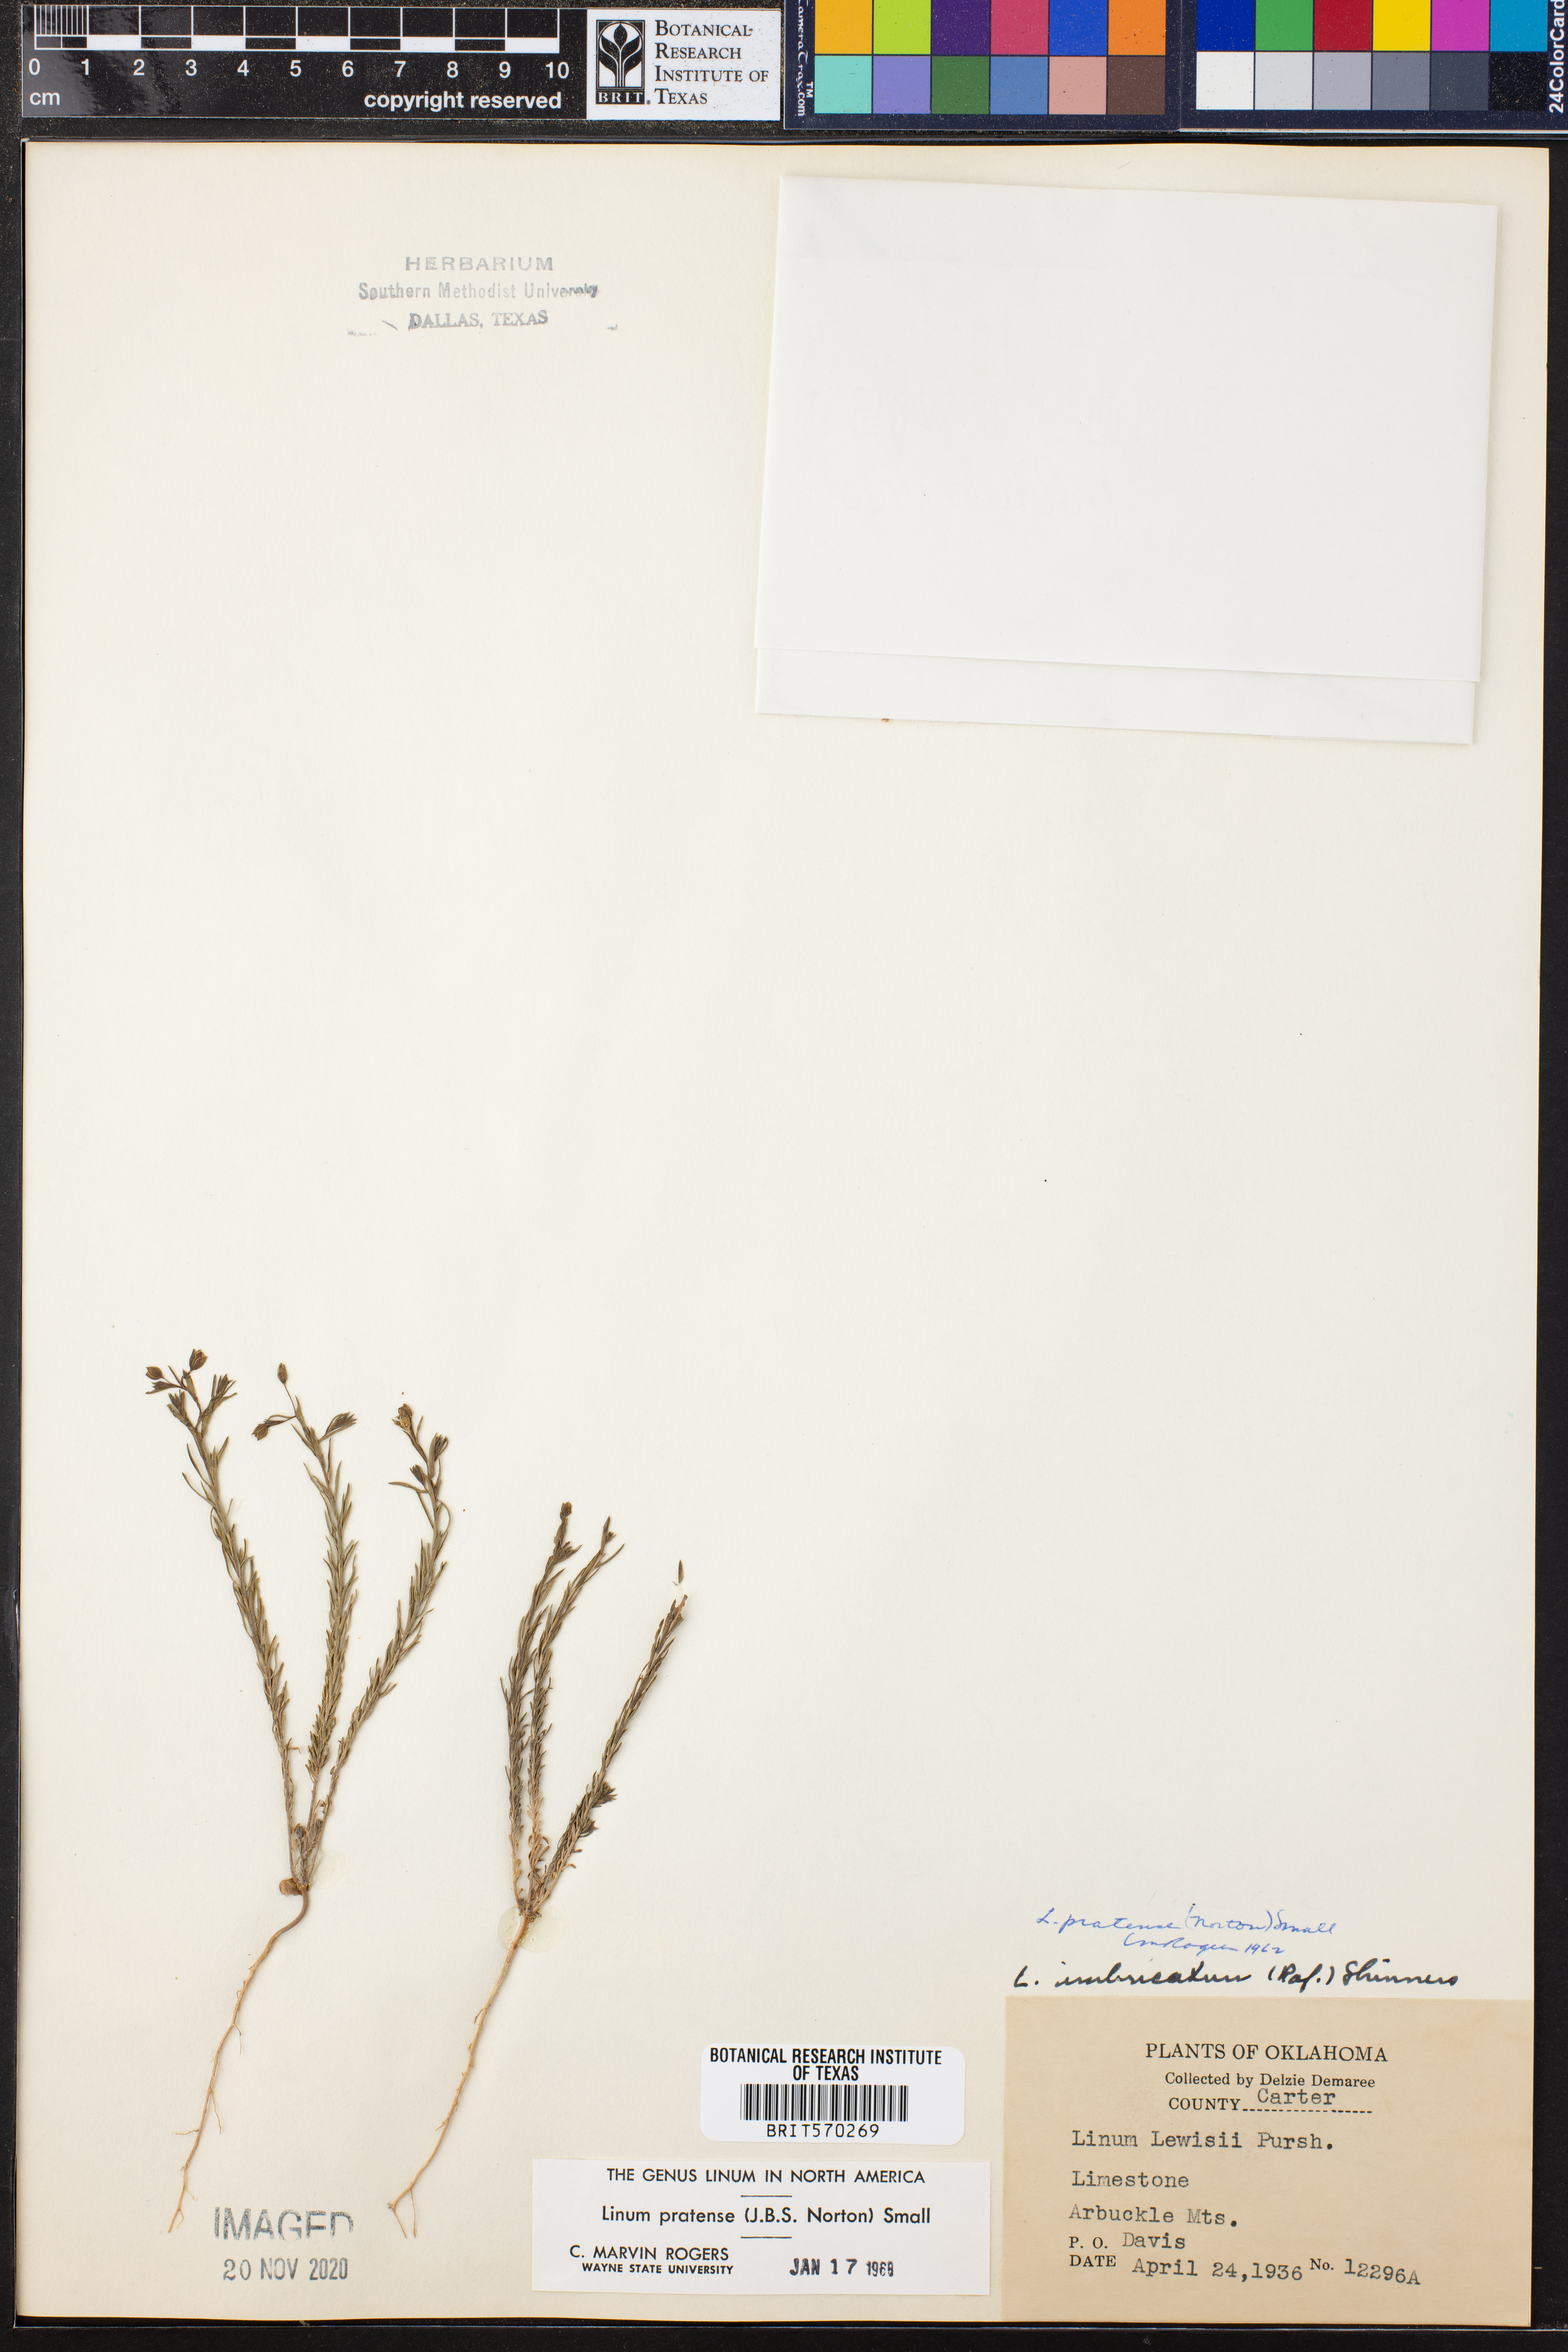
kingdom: Plantae
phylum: Tracheophyta
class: Magnoliopsida
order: Malpighiales
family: Linaceae
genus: Linum
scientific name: Linum pratense
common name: Norton's flax
